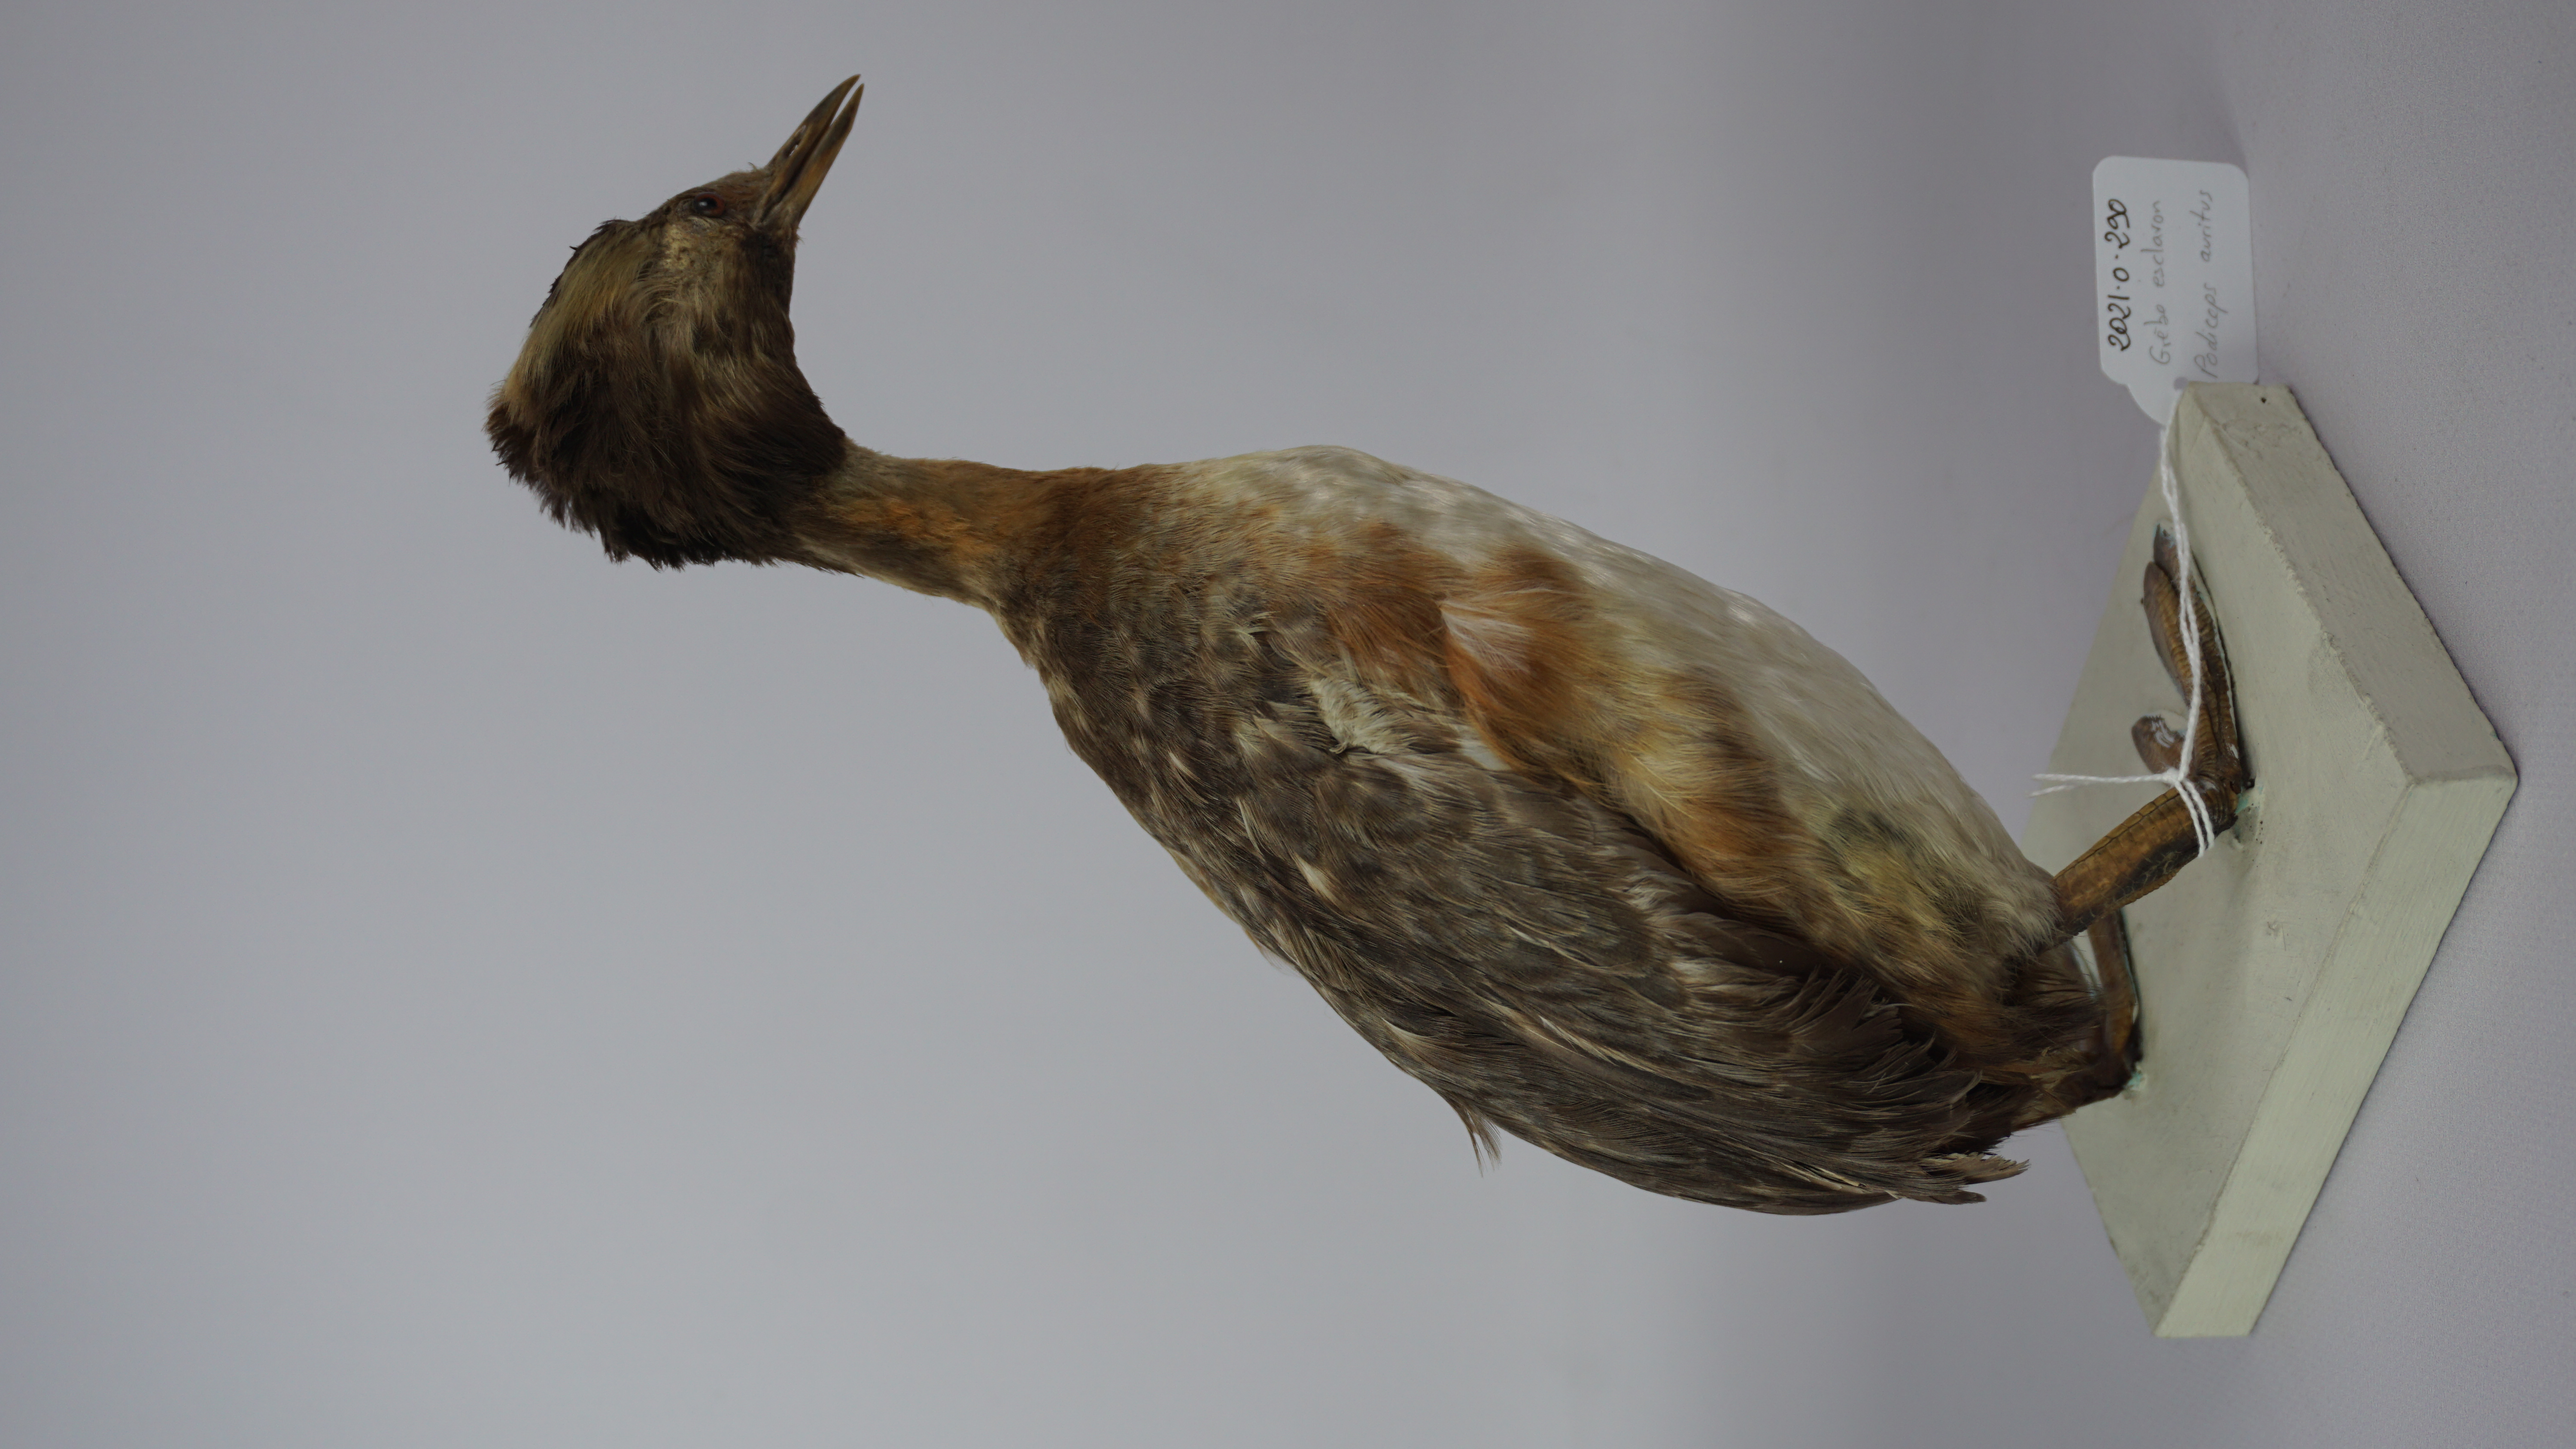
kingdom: Animalia
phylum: Chordata
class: Aves
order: Podicipediformes
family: Podicipedidae
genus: Podiceps
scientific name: Podiceps auritus
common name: Horned grebe
